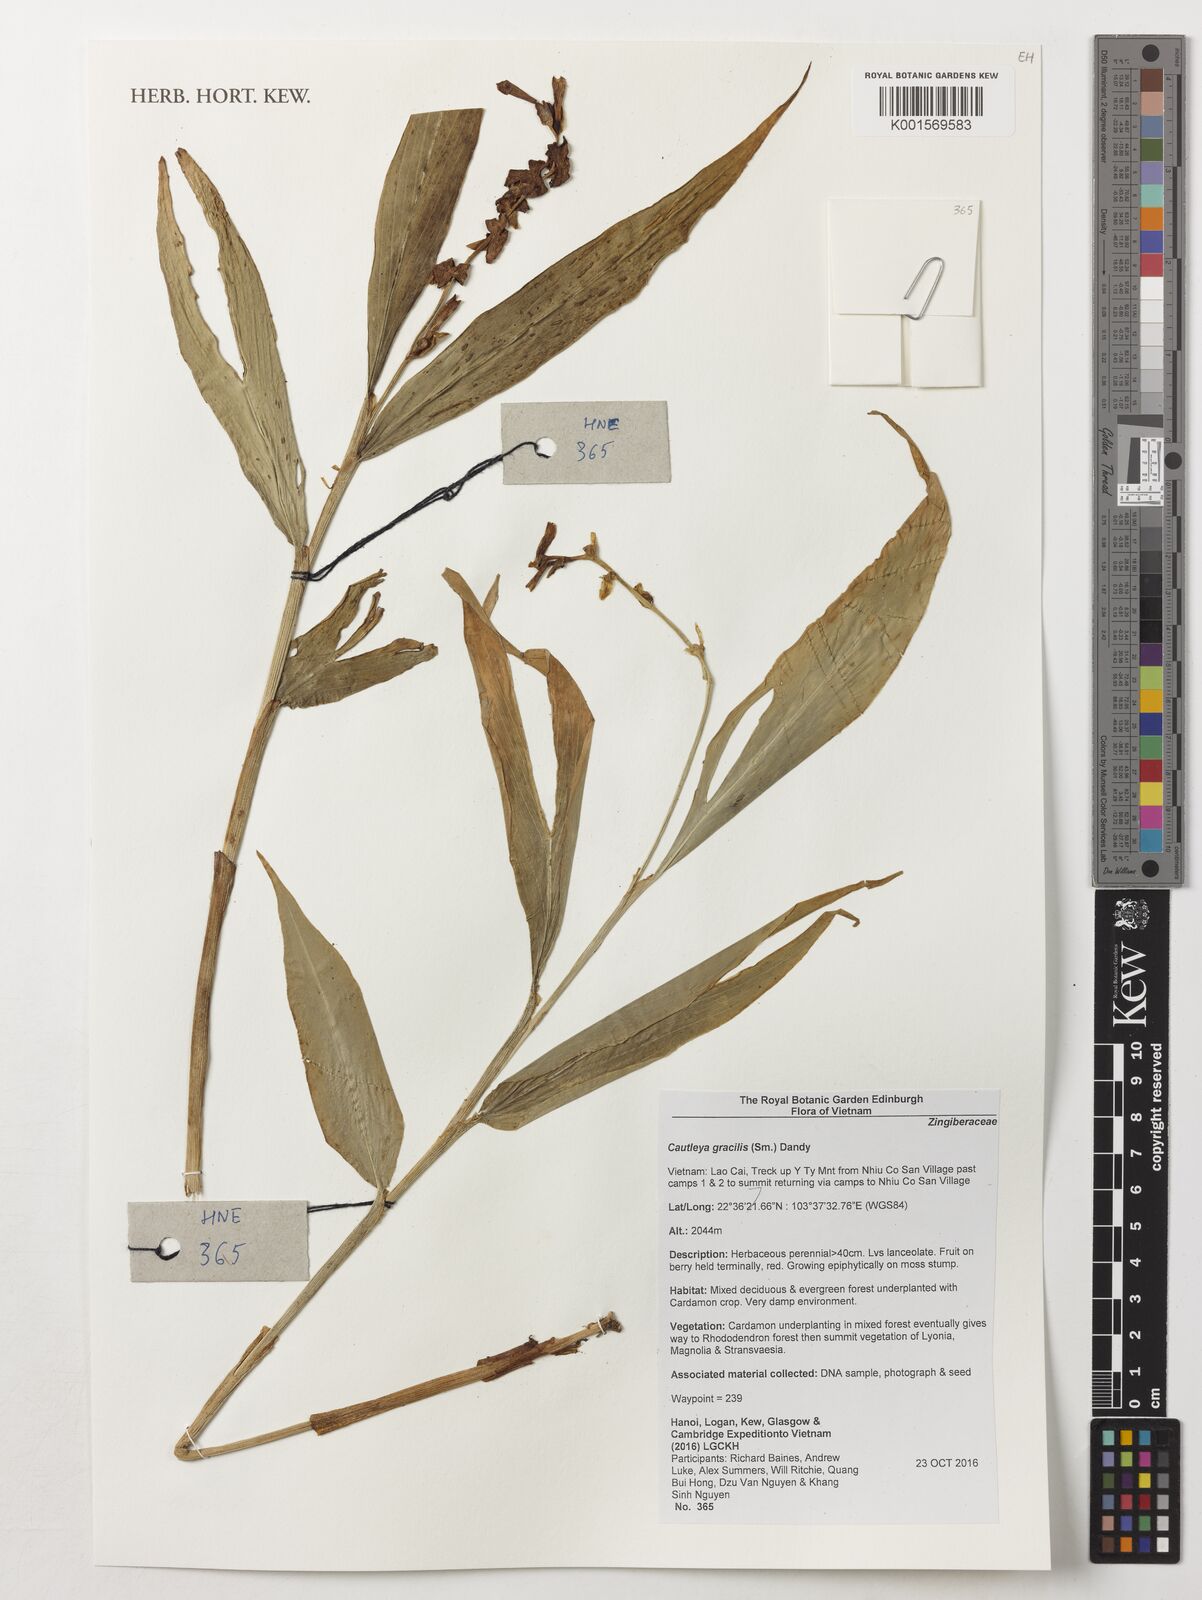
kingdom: Plantae
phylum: Tracheophyta
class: Liliopsida
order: Zingiberales
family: Zingiberaceae
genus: Cautleya
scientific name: Cautleya gracilis
